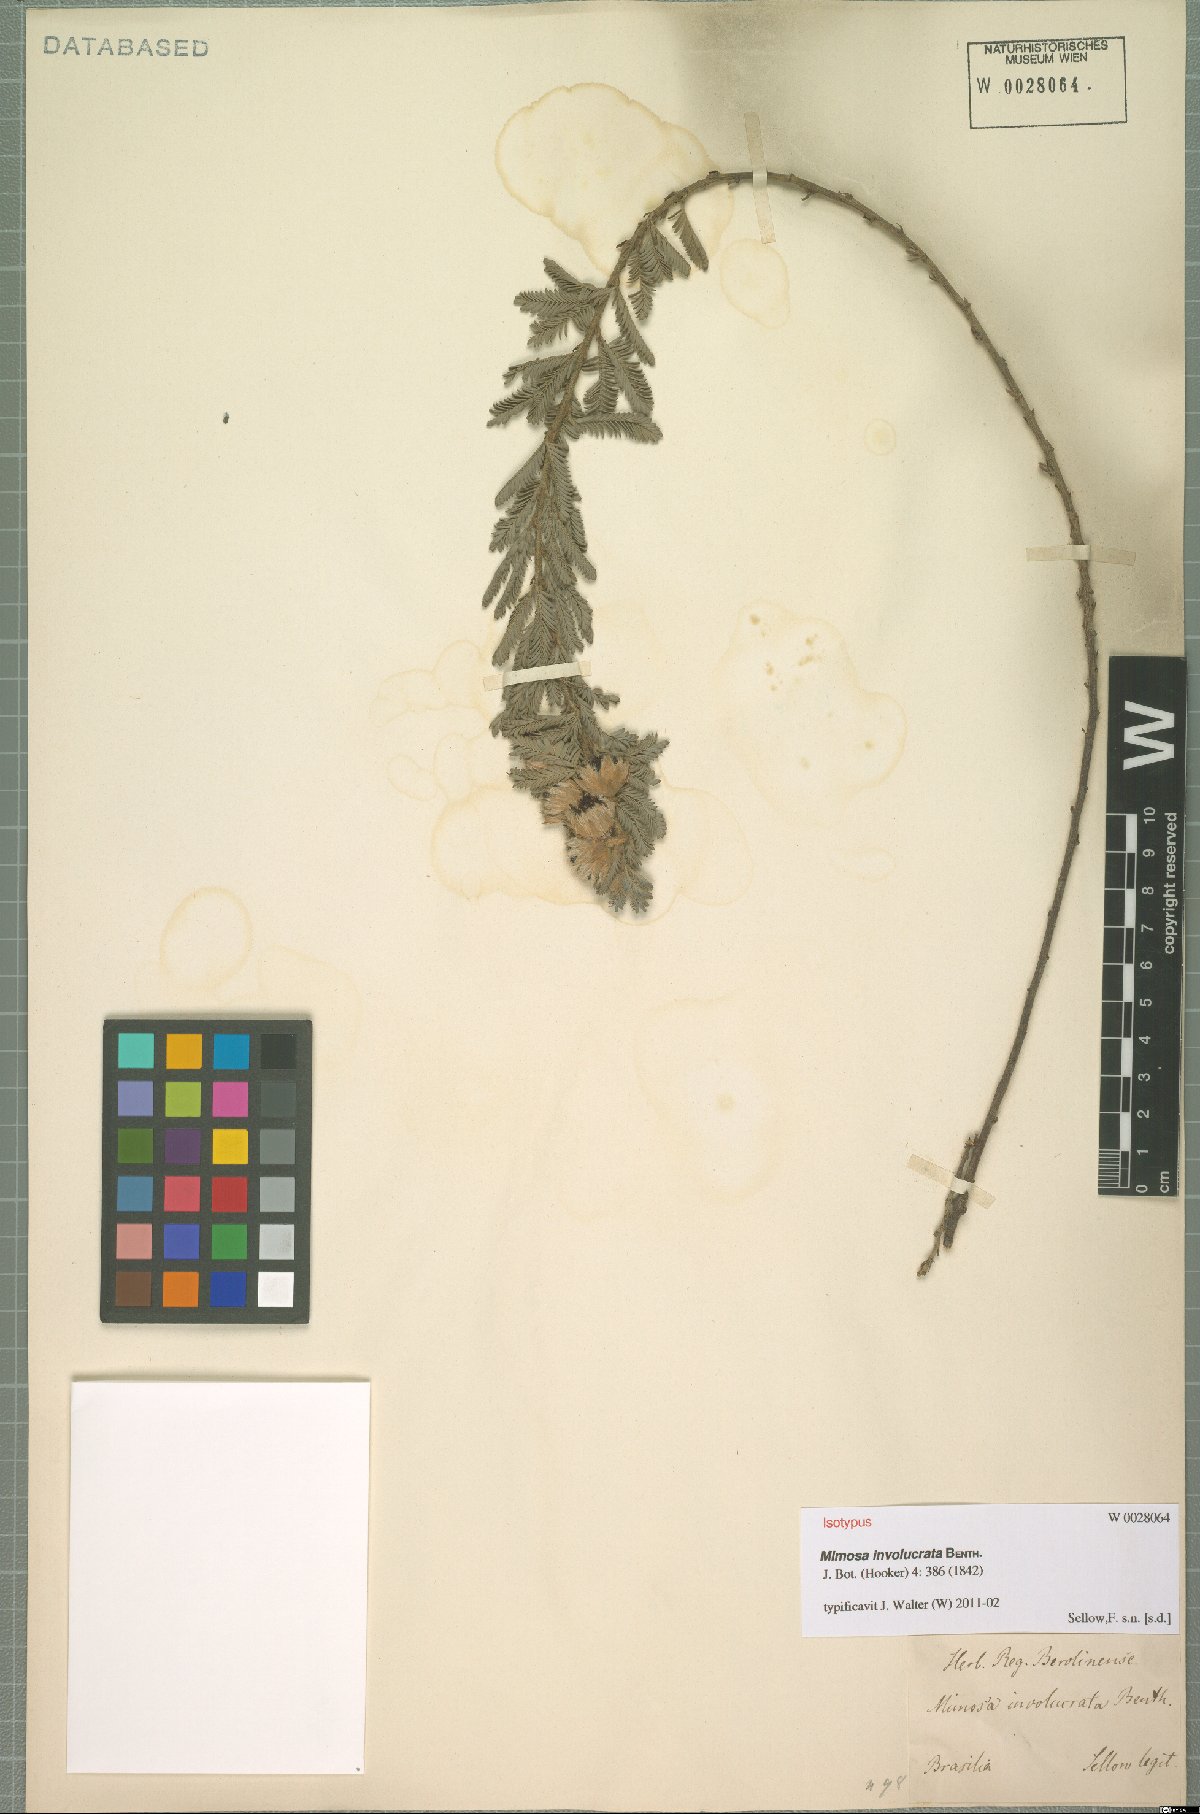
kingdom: Plantae
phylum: Tracheophyta
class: Magnoliopsida
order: Fabales
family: Fabaceae
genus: Mimosa
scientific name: Mimosa involucrata
